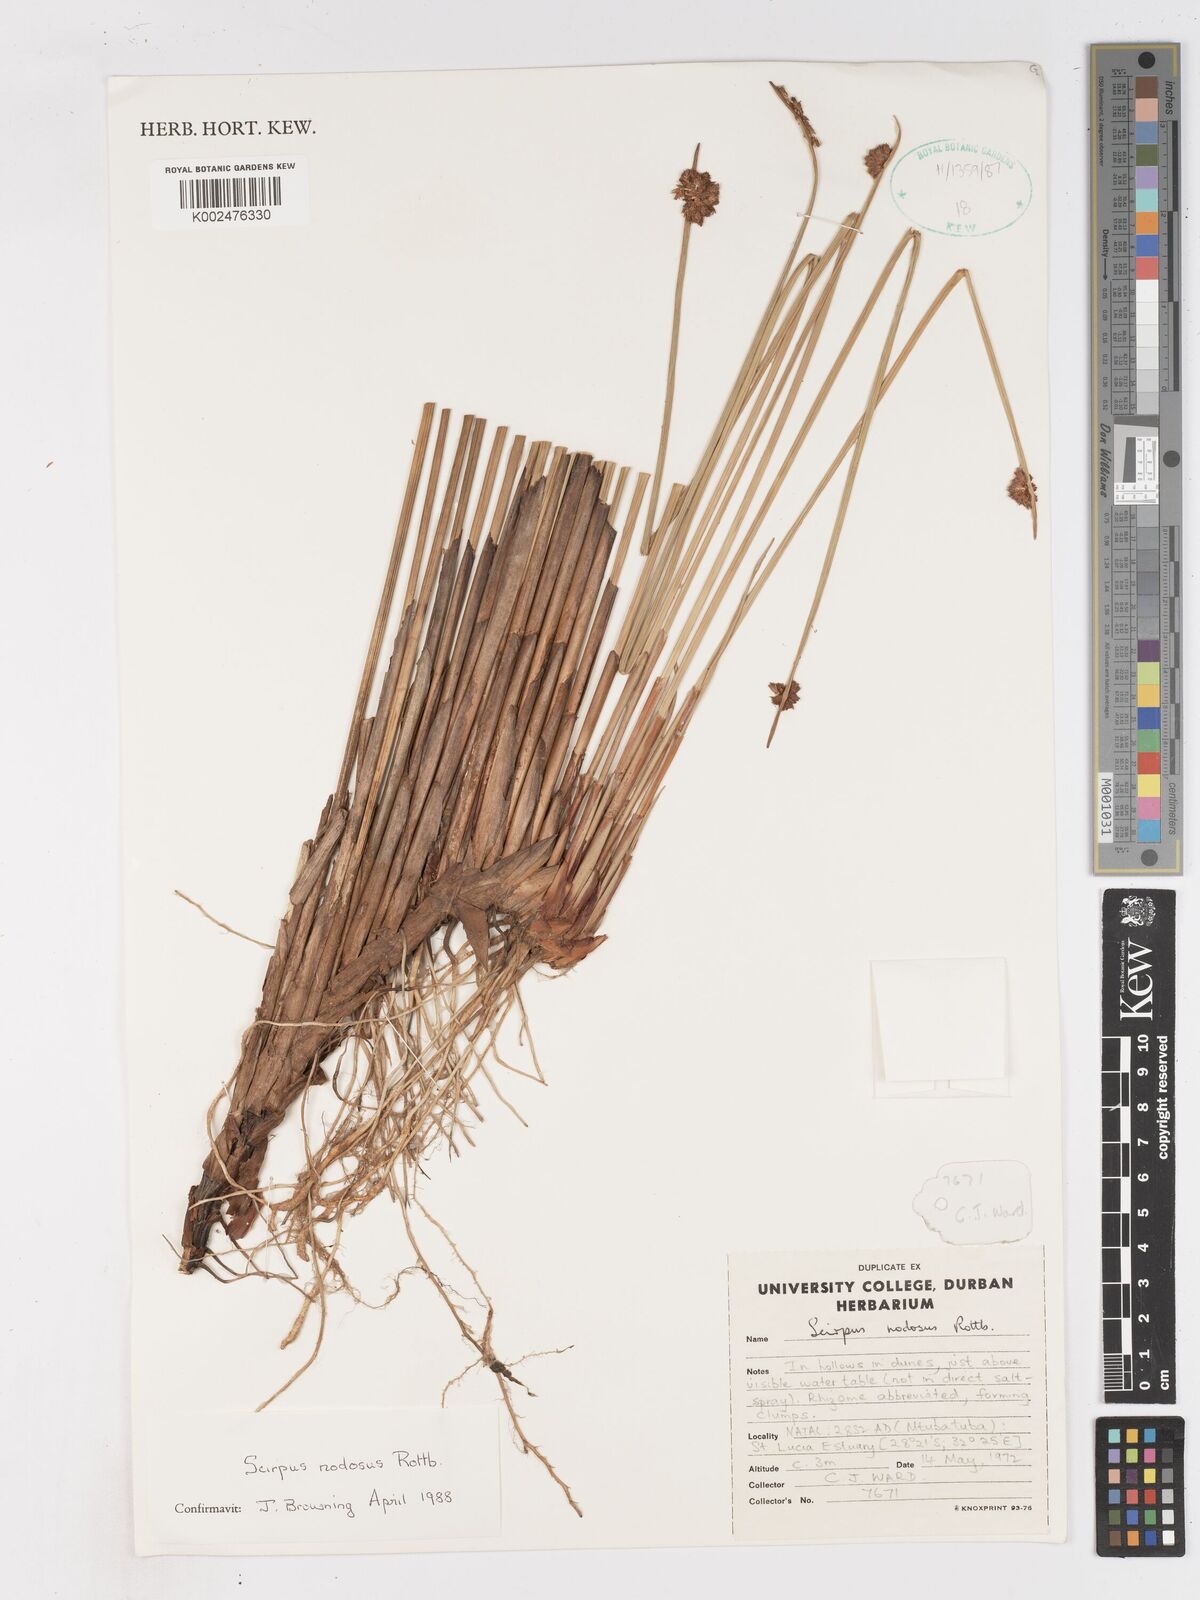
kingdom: Plantae
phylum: Tracheophyta
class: Liliopsida
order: Poales
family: Cyperaceae
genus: Ficinia
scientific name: Ficinia nodosa
